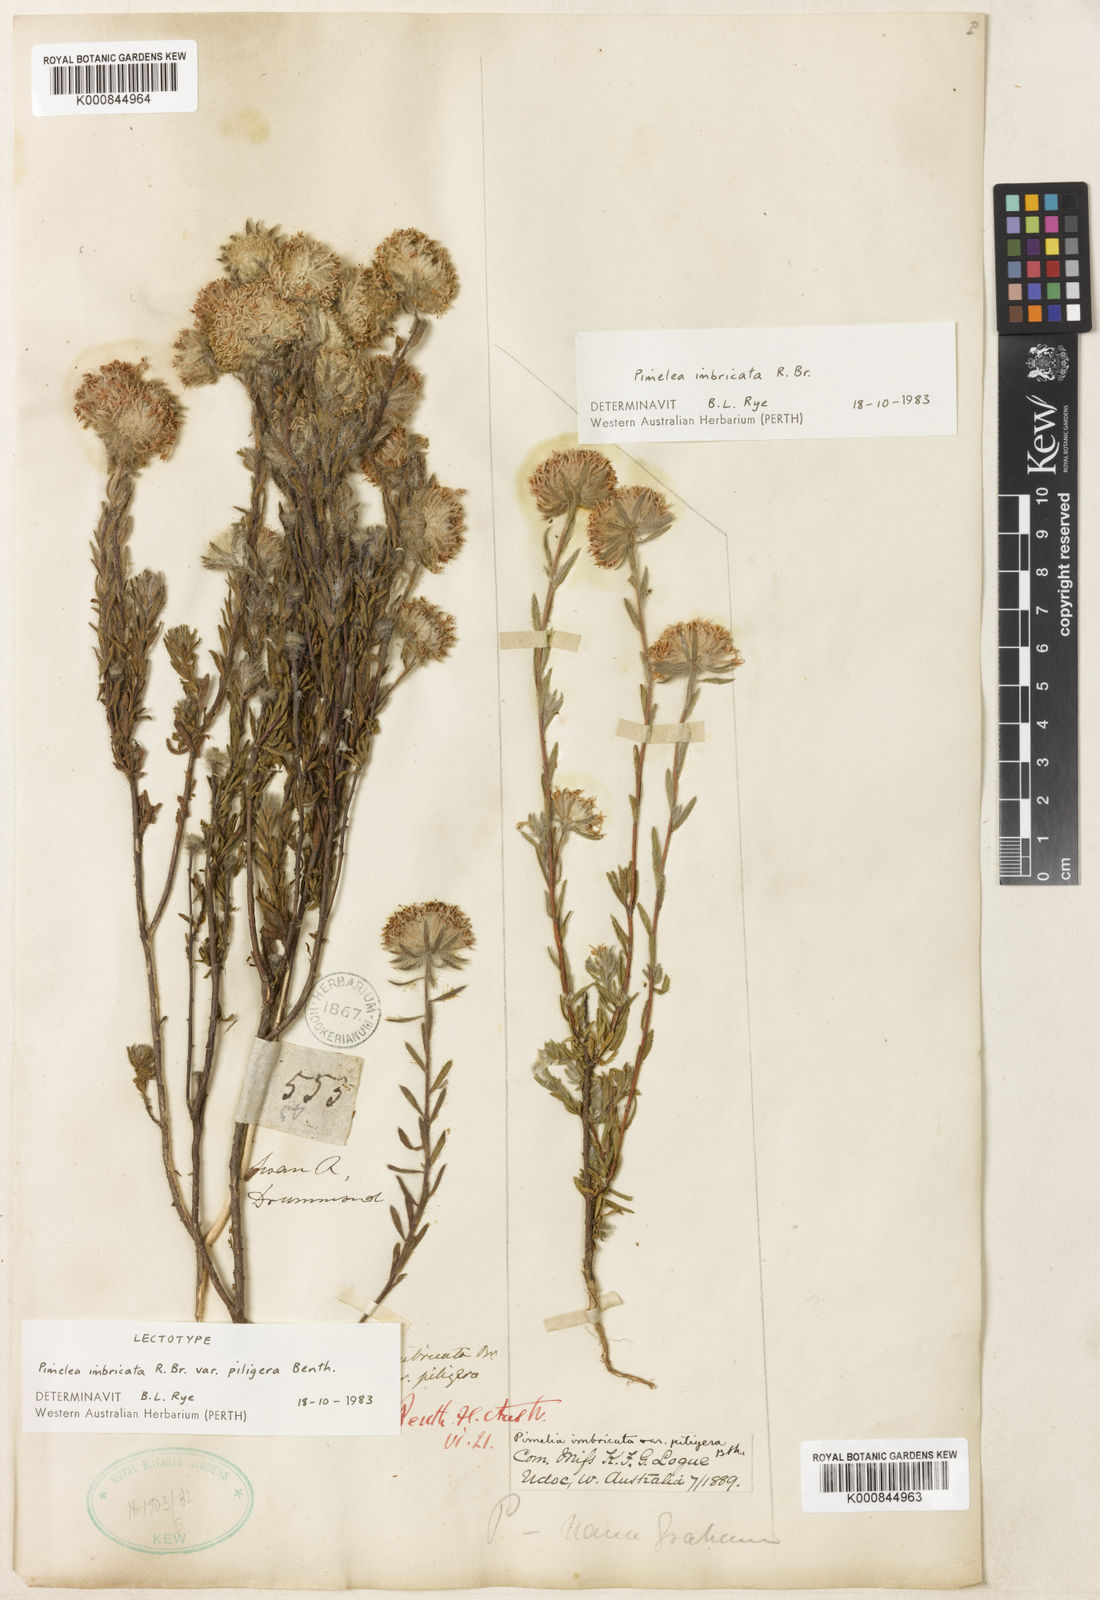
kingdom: Plantae
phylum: Tracheophyta
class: Magnoliopsida
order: Malvales
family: Thymelaeaceae
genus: Pimelea
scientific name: Pimelea imbricata
